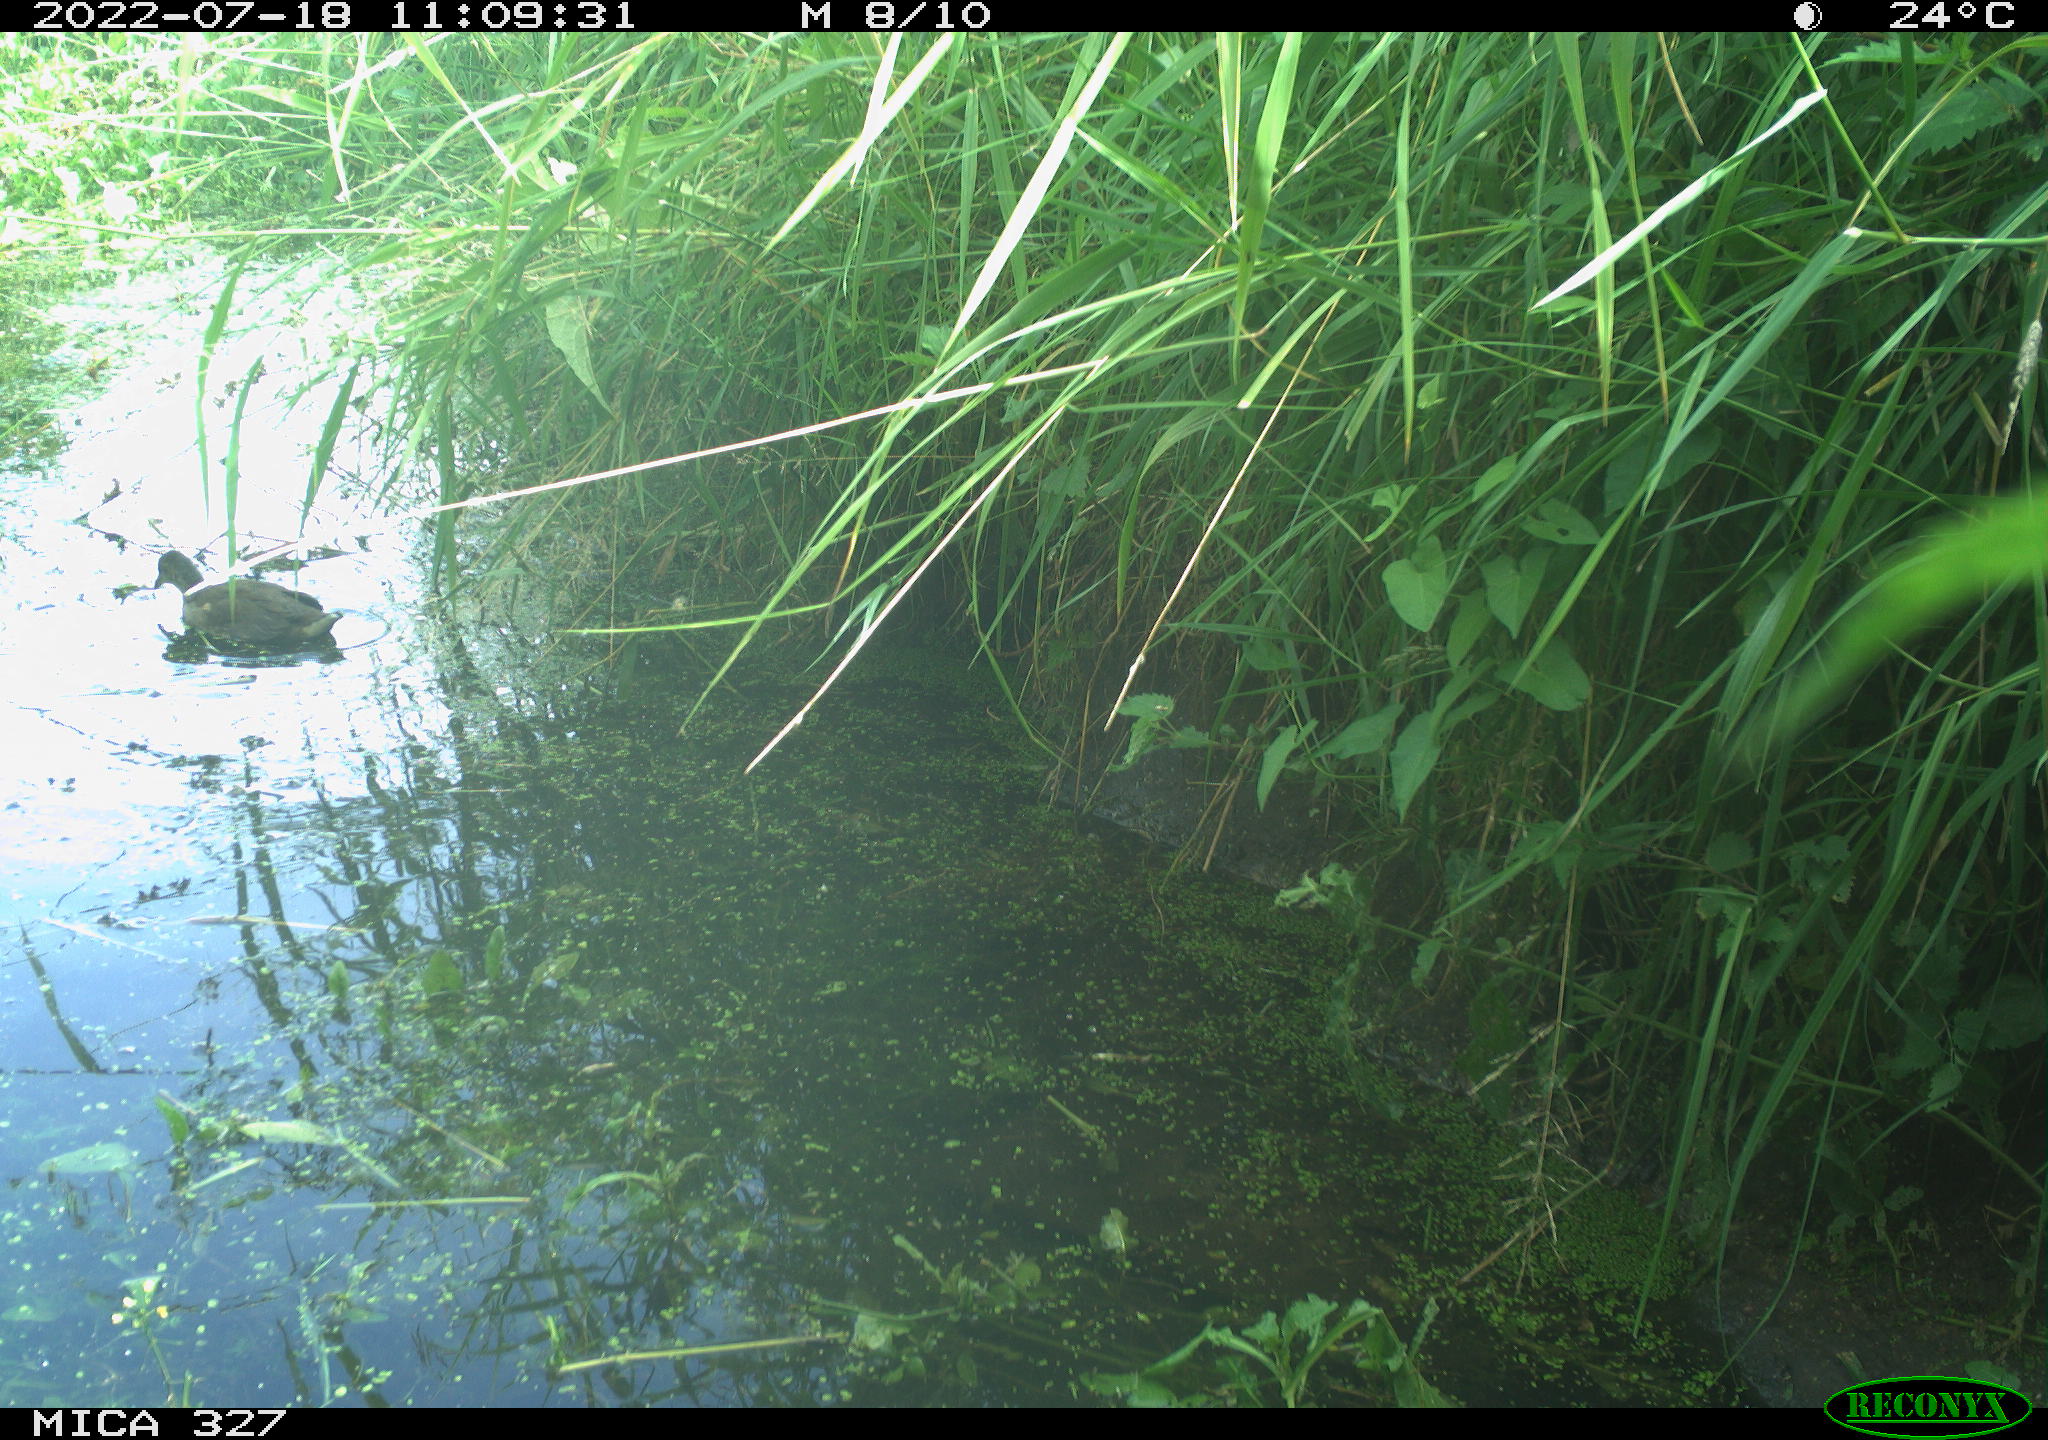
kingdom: Animalia
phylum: Chordata
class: Aves
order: Gruiformes
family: Rallidae
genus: Gallinula
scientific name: Gallinula chloropus
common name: Common moorhen
